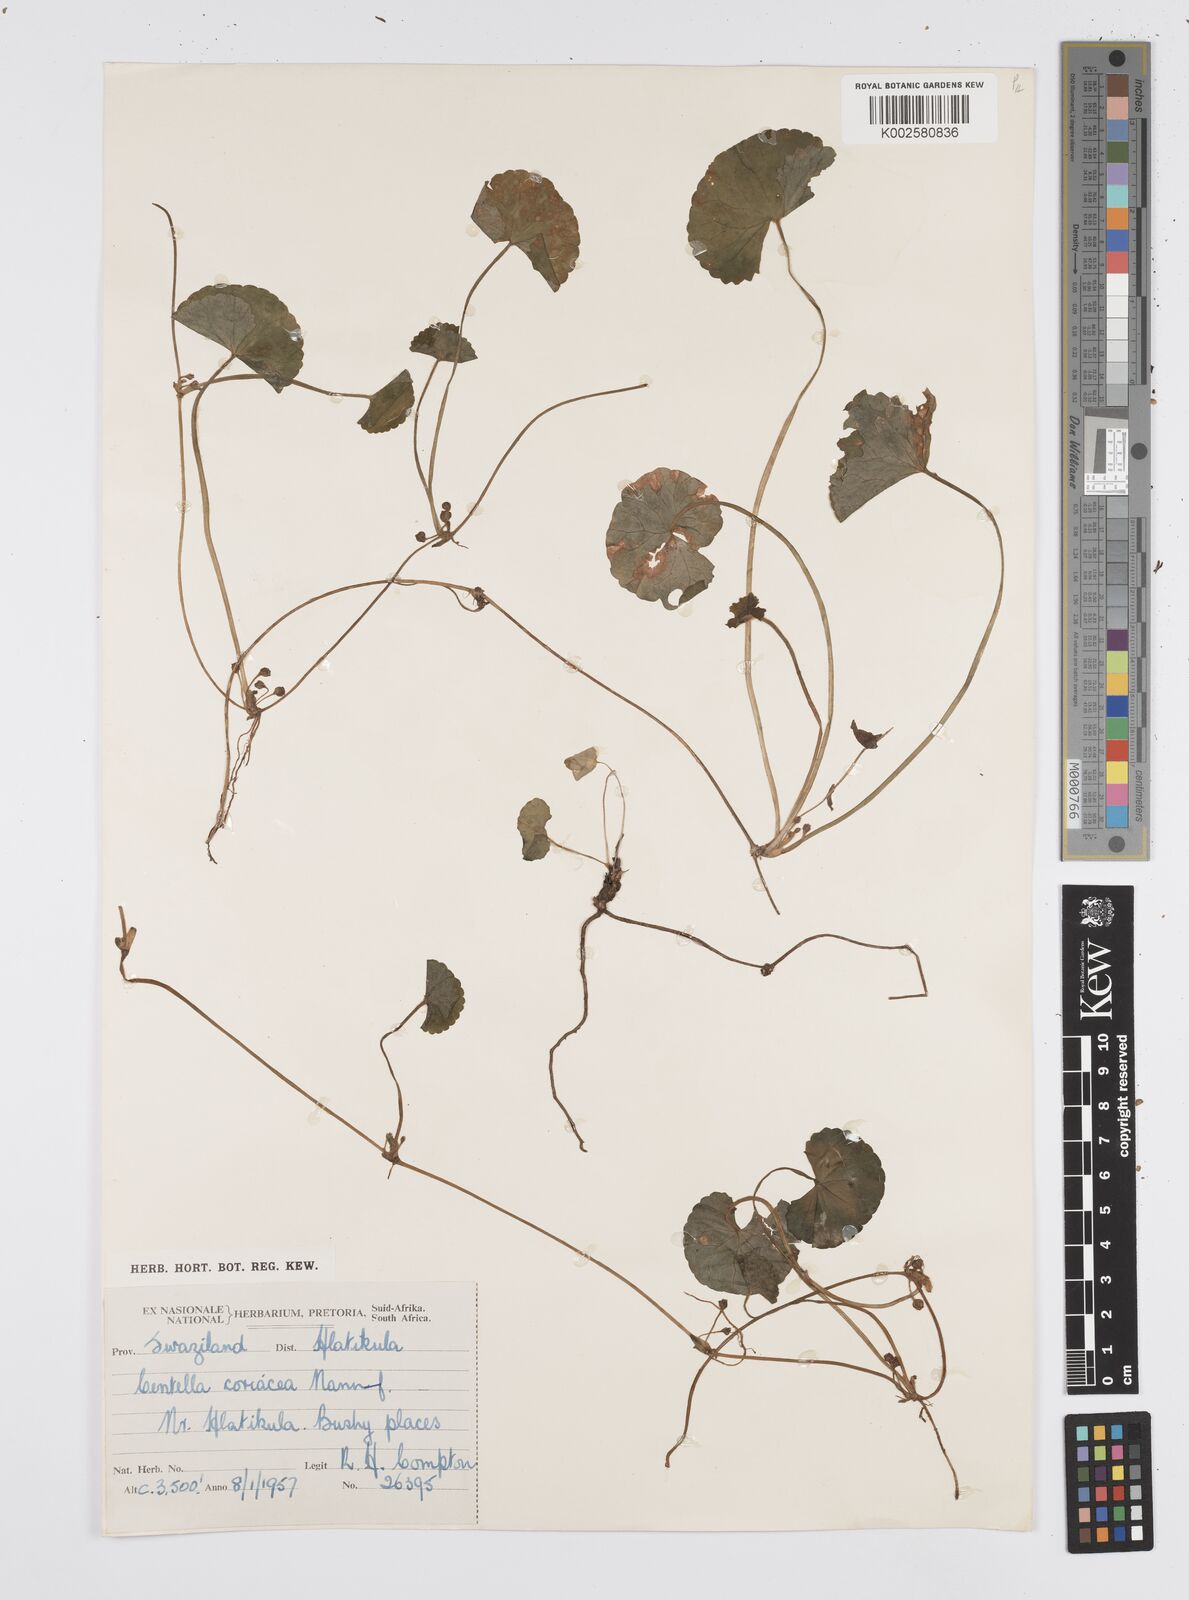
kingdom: Plantae
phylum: Tracheophyta
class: Magnoliopsida
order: Apiales
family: Apiaceae
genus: Centella
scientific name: Centella coriacea
